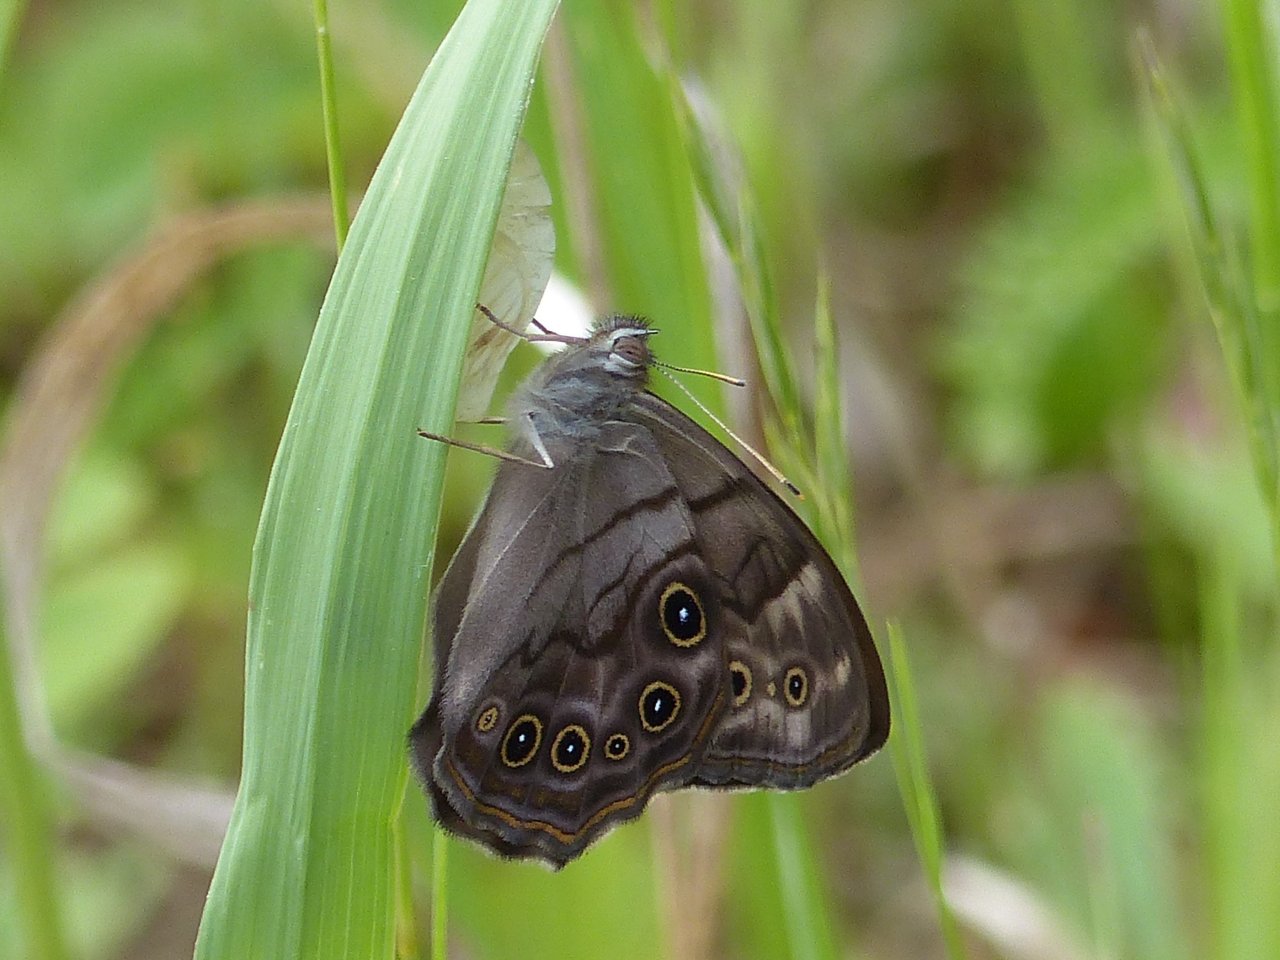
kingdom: Animalia
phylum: Arthropoda
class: Insecta
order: Lepidoptera
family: Nymphalidae
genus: Lethe
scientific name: Lethe anthedon
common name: Northern Pearly-Eye
